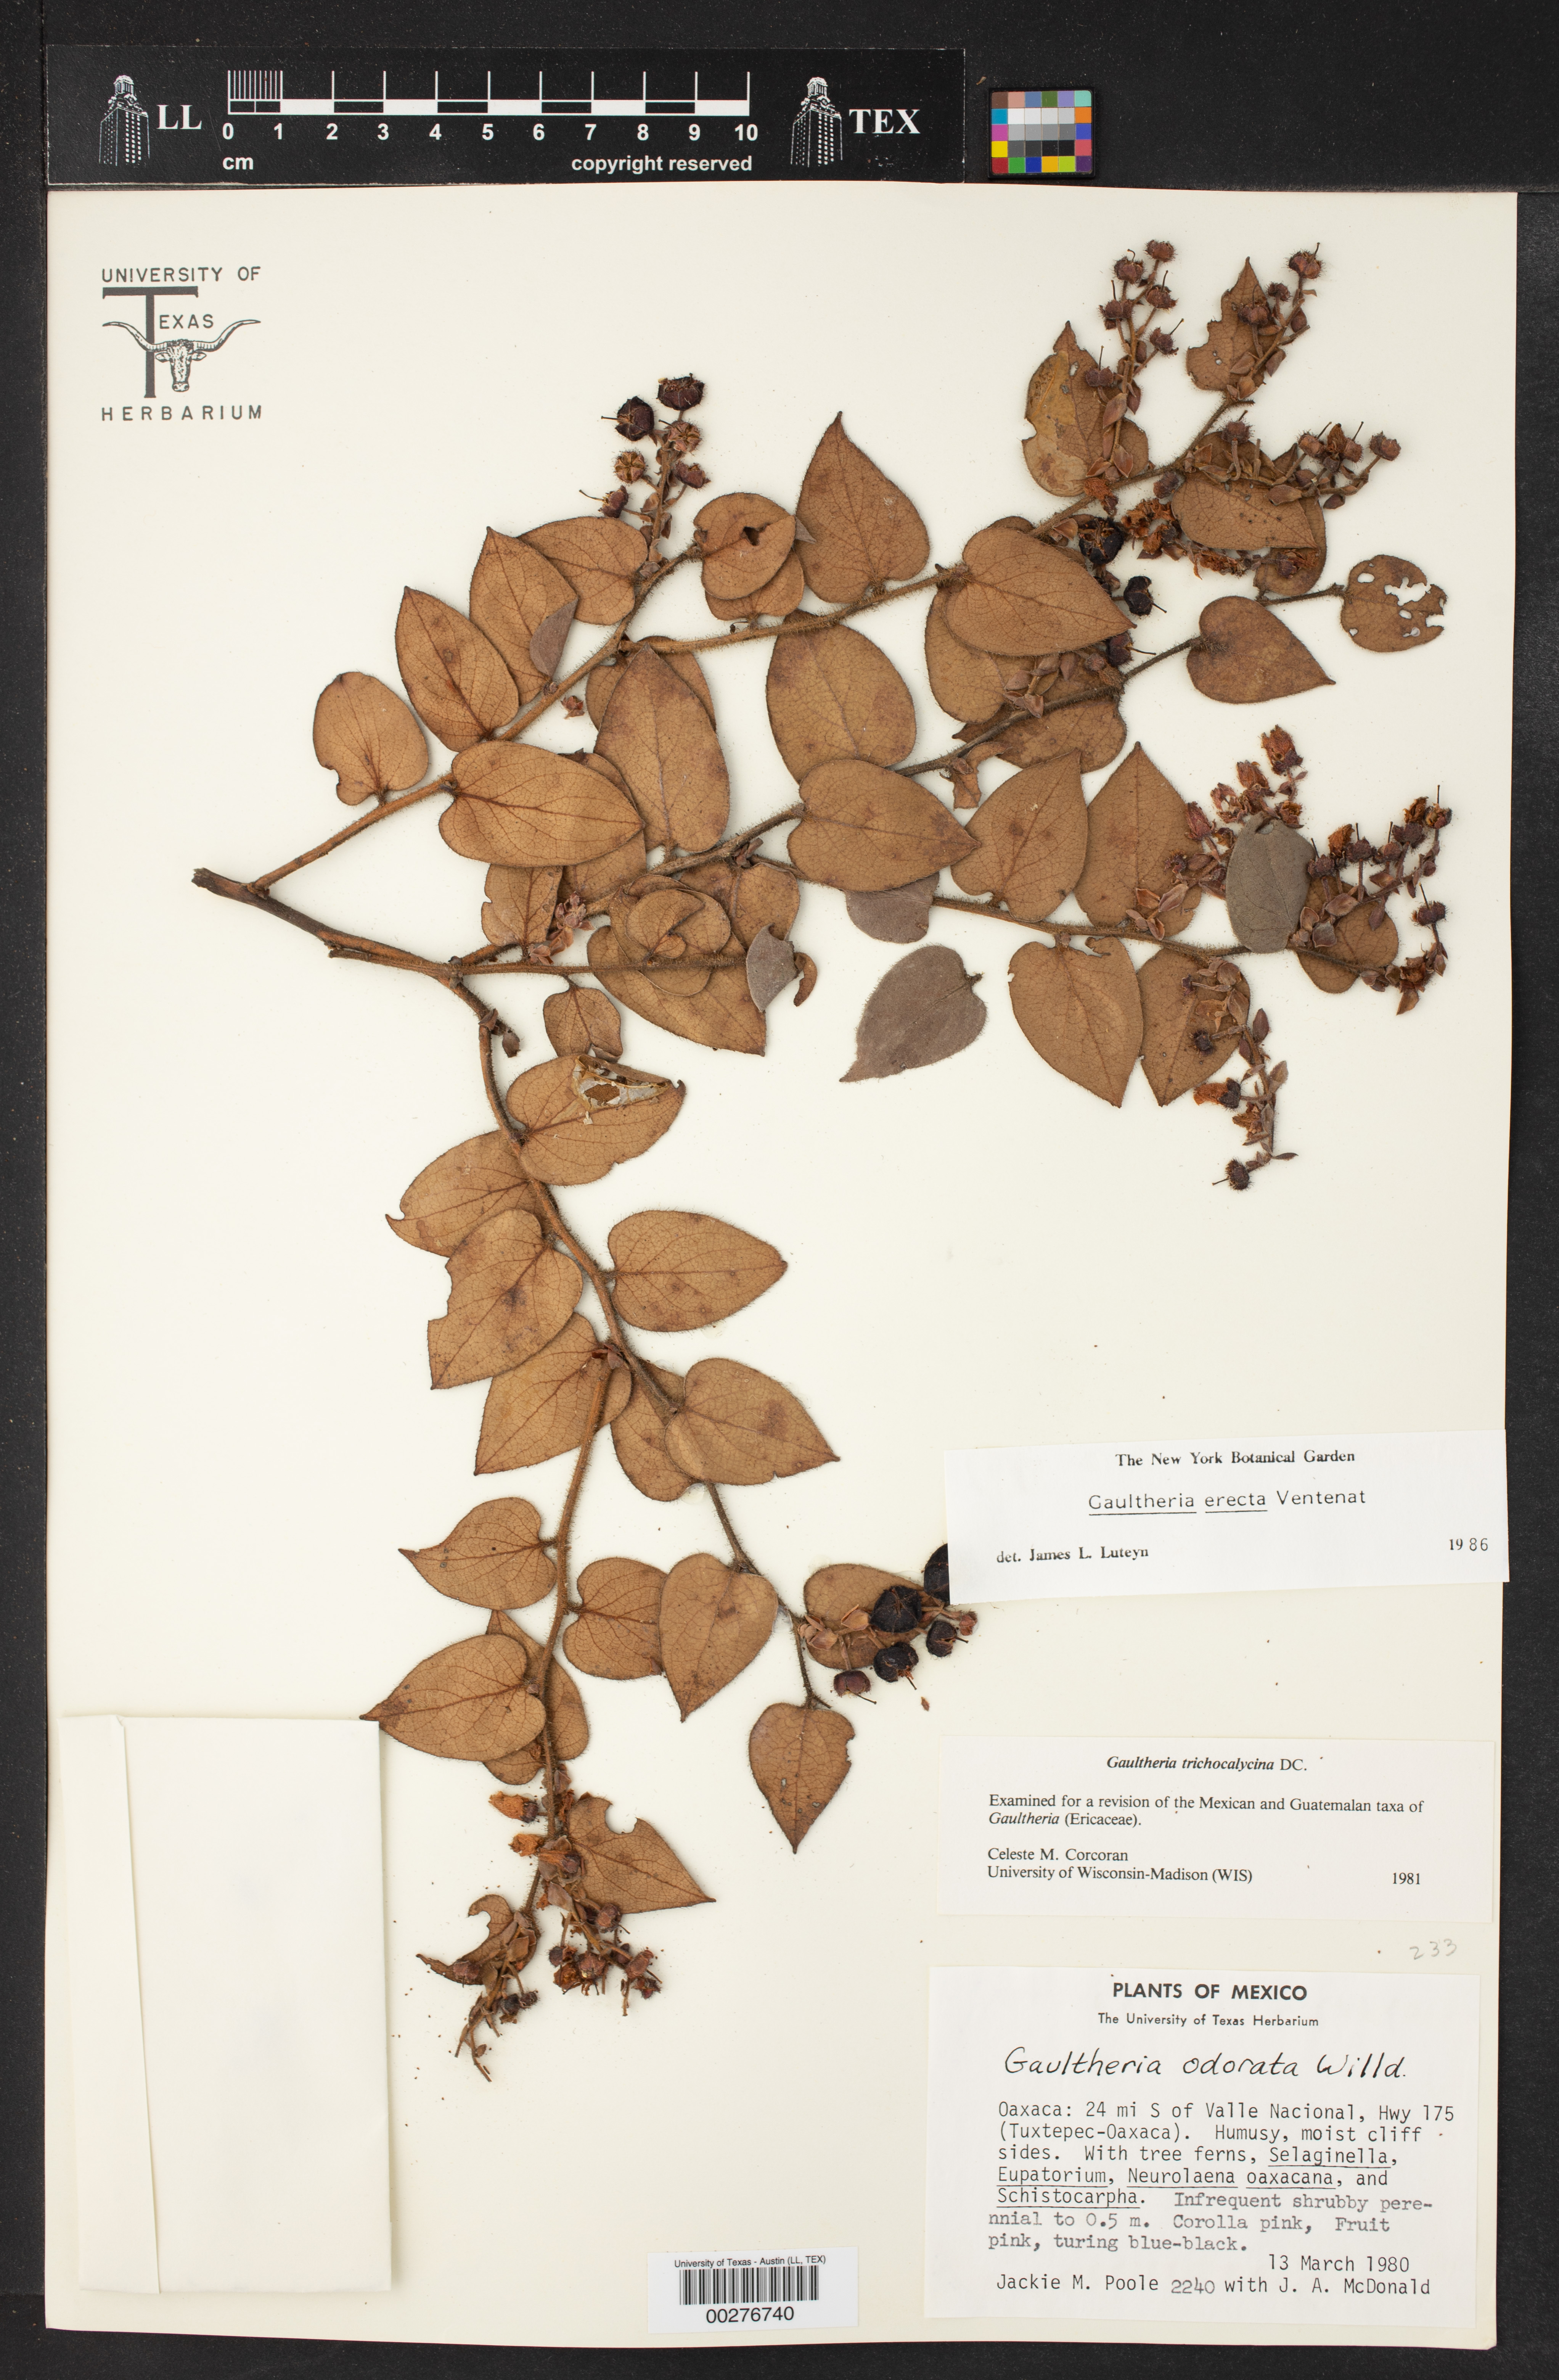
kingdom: Plantae
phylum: Tracheophyta
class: Magnoliopsida
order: Ericales
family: Ericaceae
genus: Gaultheria
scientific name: Gaultheria erecta
